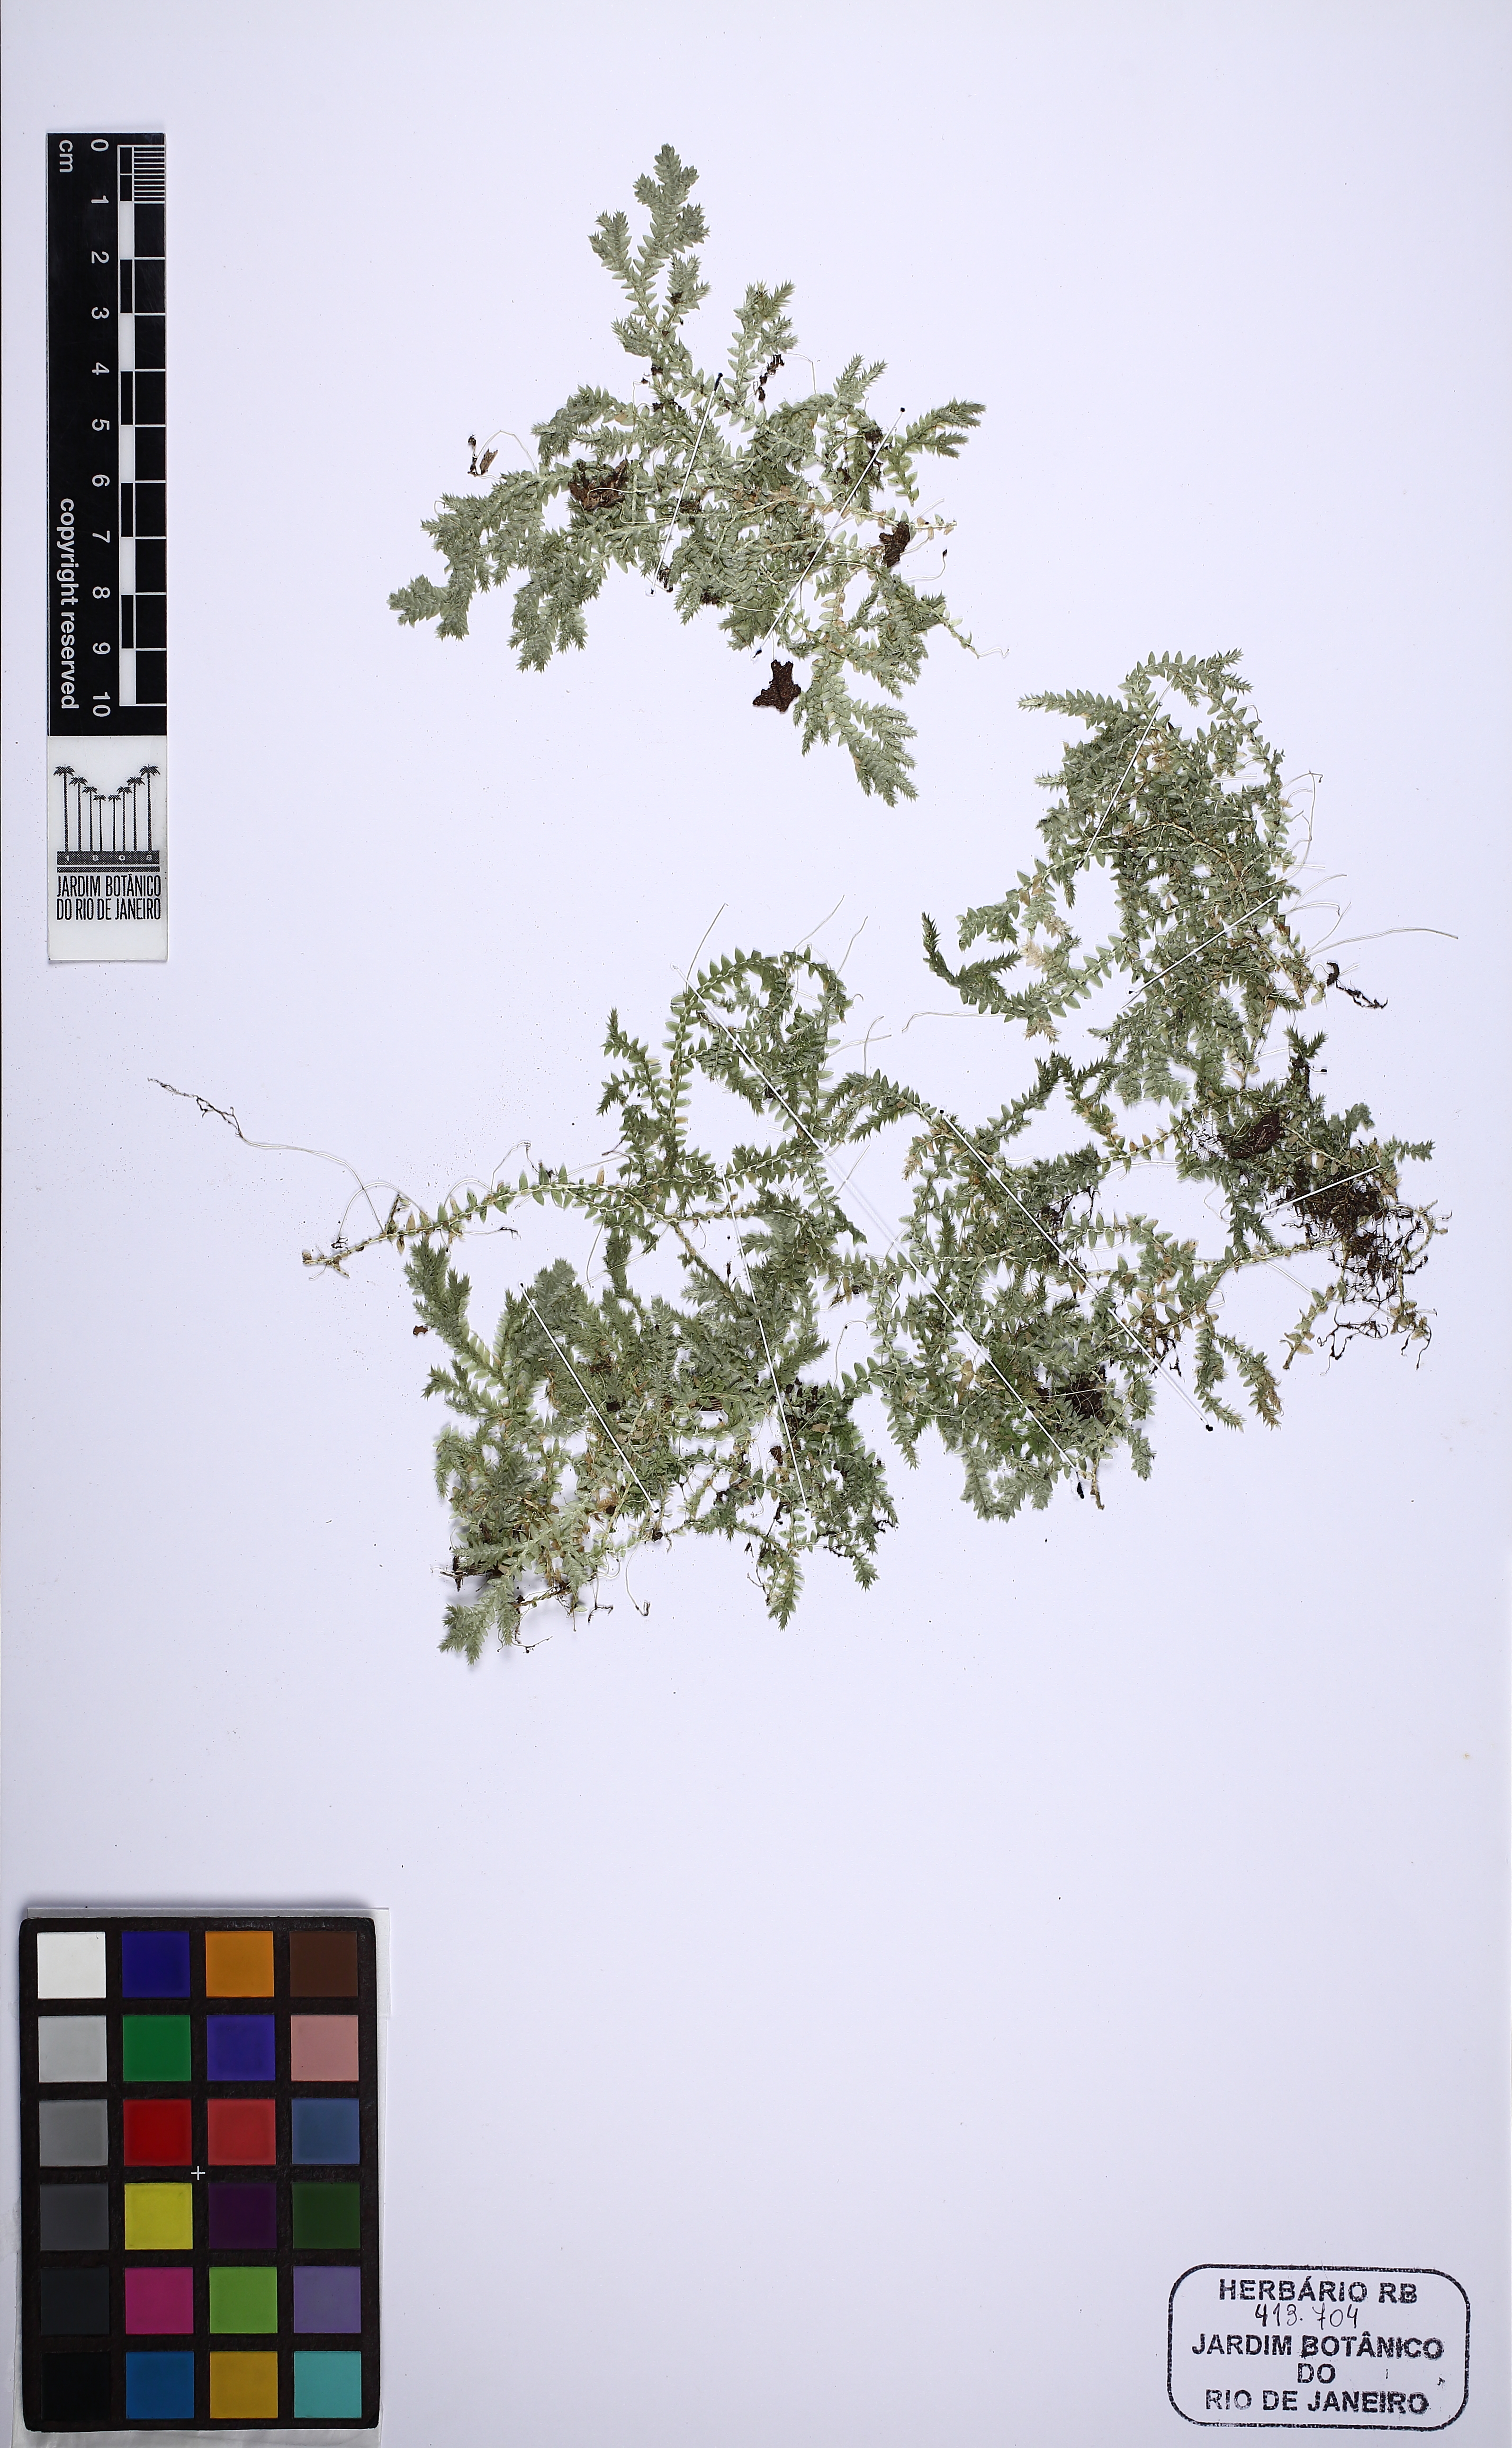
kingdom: Plantae
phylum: Tracheophyta
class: Lycopodiopsida
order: Selaginellales
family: Selaginellaceae
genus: Selaginella
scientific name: Selaginella muscosa
